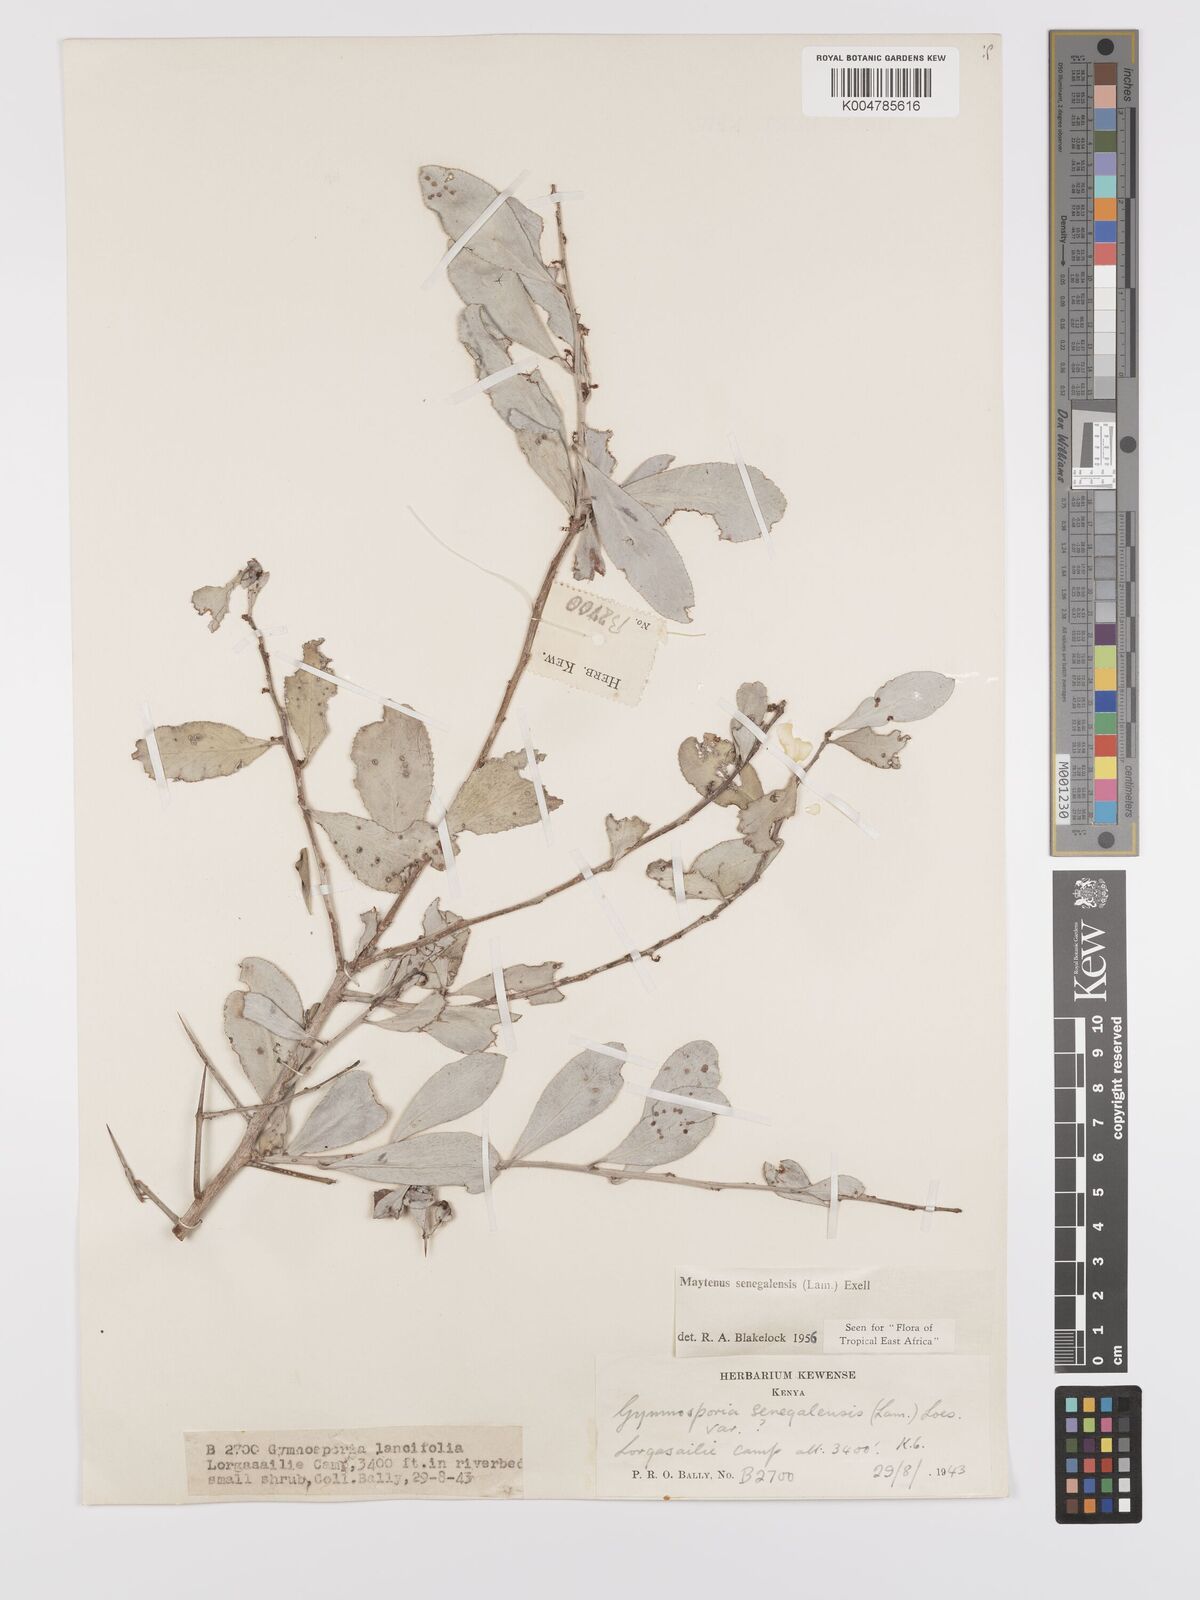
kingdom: Plantae
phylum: Tracheophyta
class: Magnoliopsida
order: Celastrales
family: Celastraceae
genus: Gymnosporia
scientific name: Gymnosporia senegalensis
